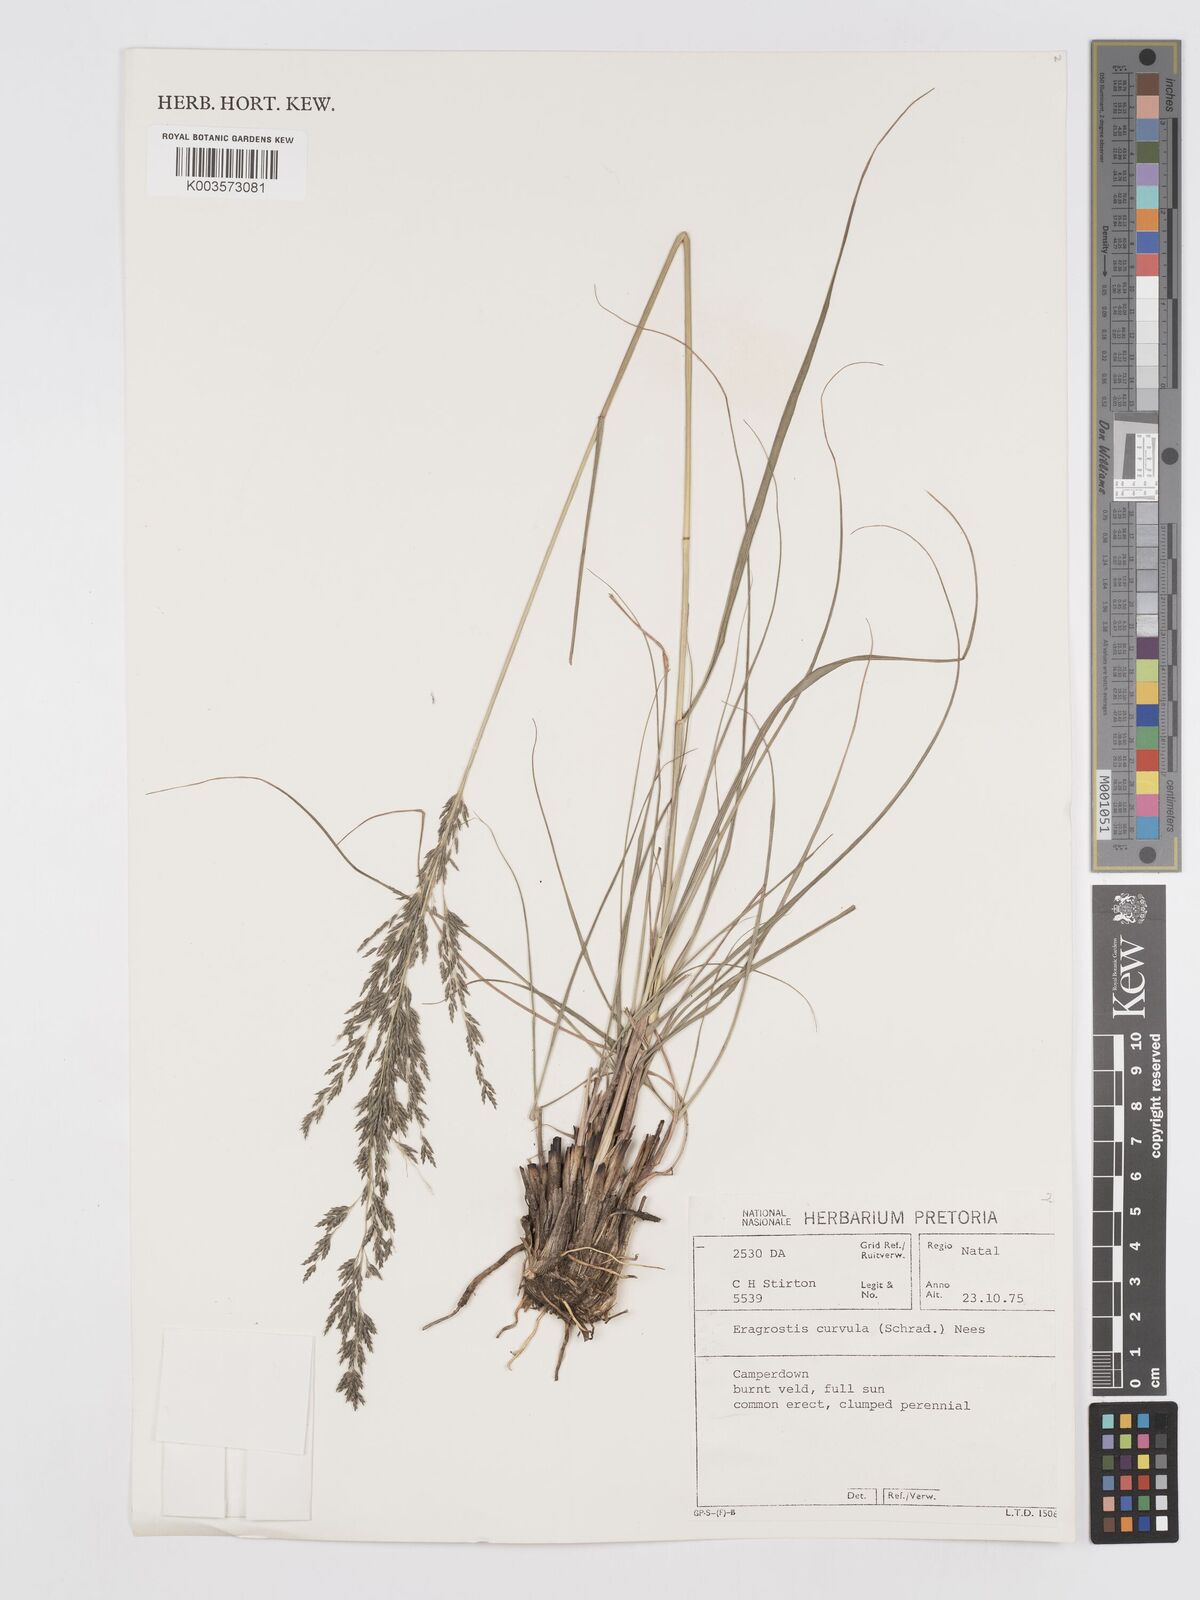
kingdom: Plantae
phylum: Tracheophyta
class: Liliopsida
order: Poales
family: Poaceae
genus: Eragrostis
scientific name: Eragrostis curvula
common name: African love-grass
